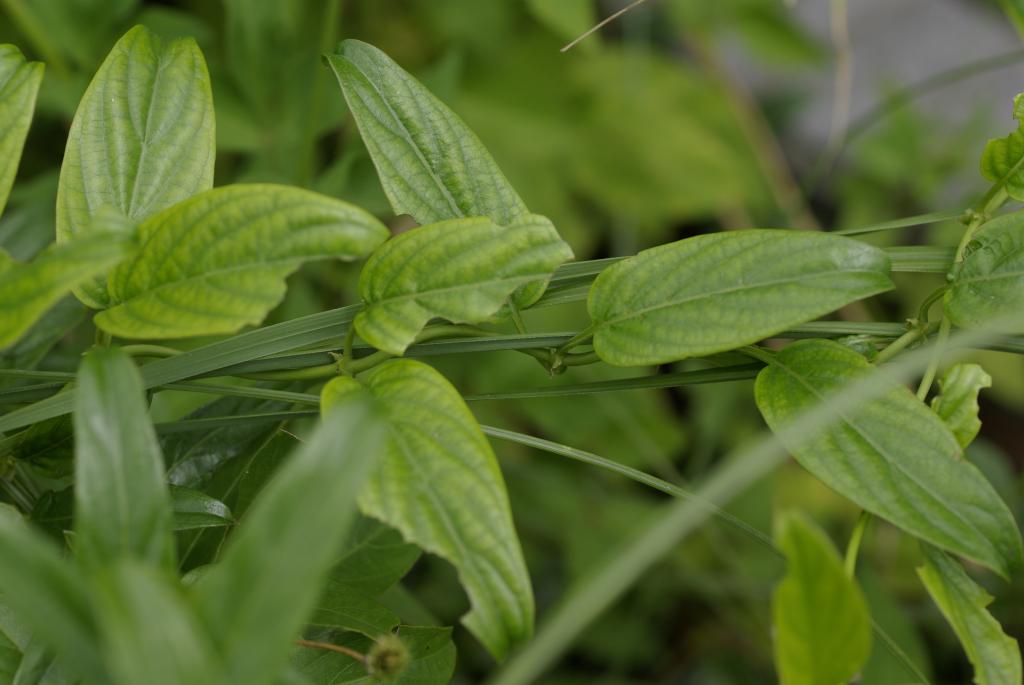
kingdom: Plantae
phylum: Tracheophyta
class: Magnoliopsida
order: Gentianales
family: Rubiaceae
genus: Paederia
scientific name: Paederia foetida
